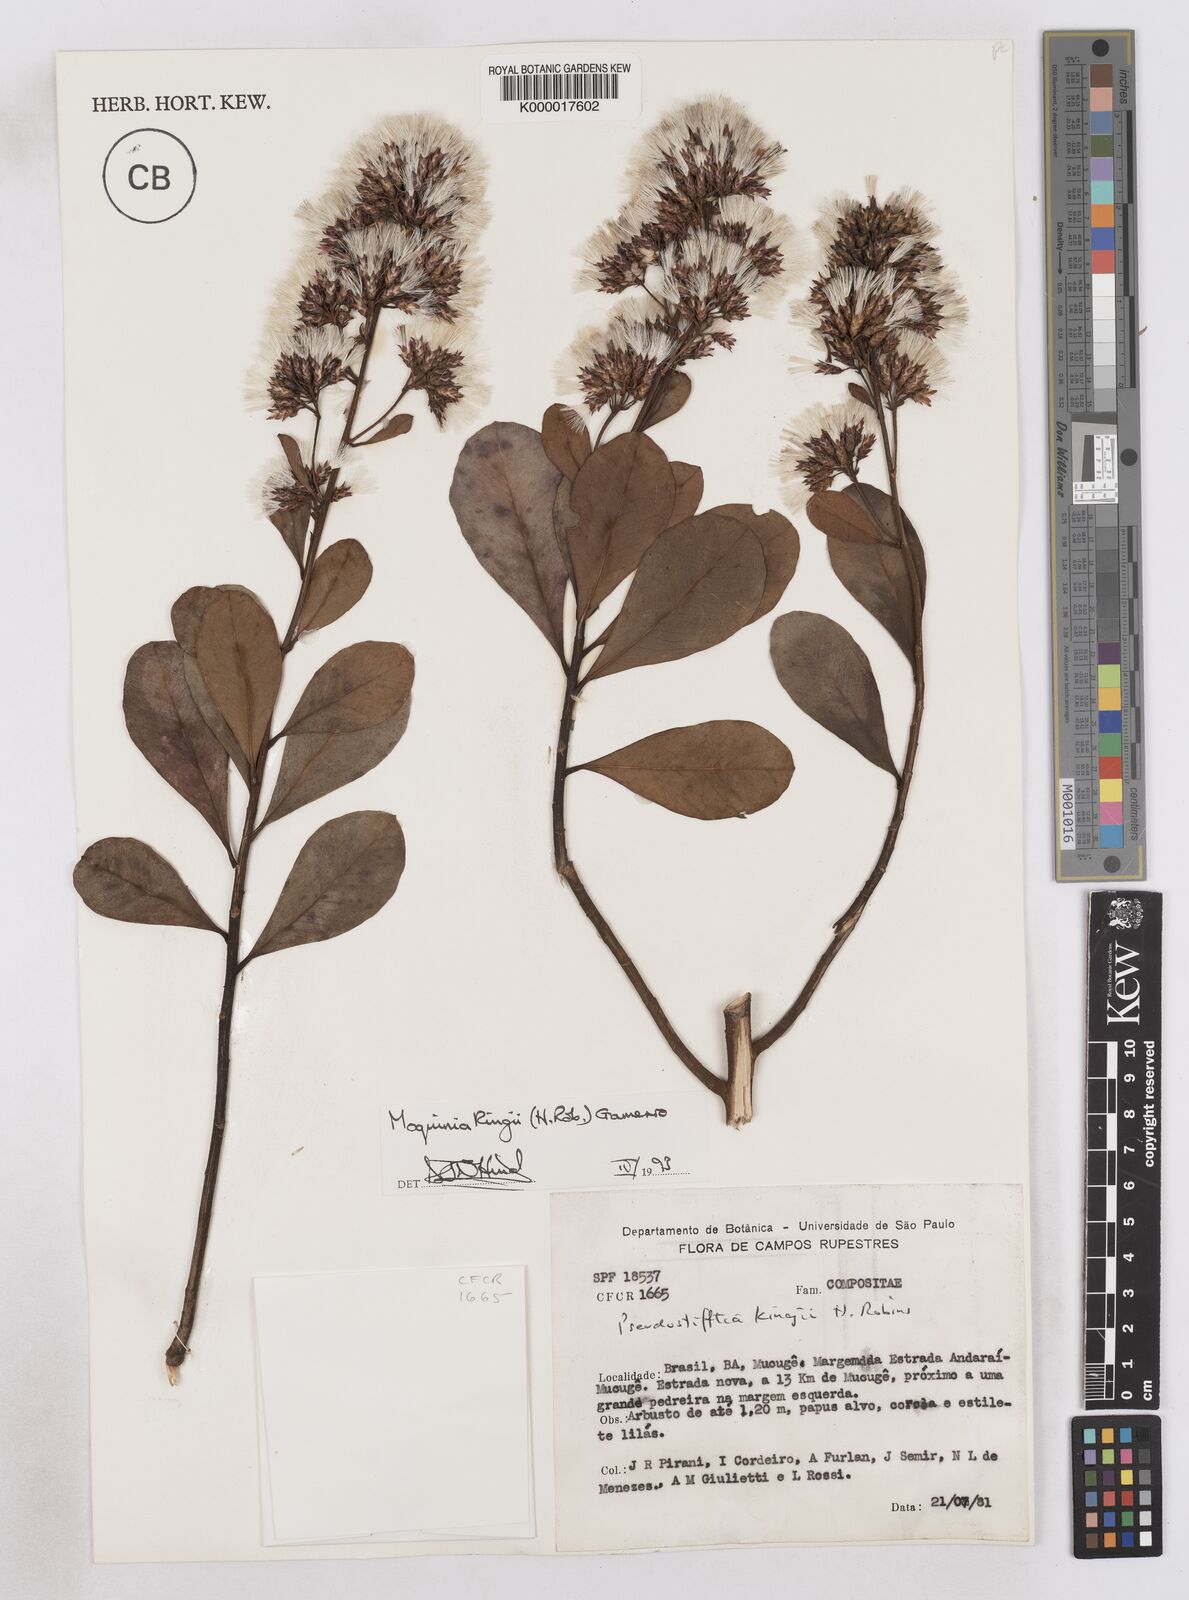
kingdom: Plantae
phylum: Tracheophyta
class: Magnoliopsida
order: Asterales
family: Asteraceae
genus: Pseudostifftia
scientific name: Pseudostifftia kingii
